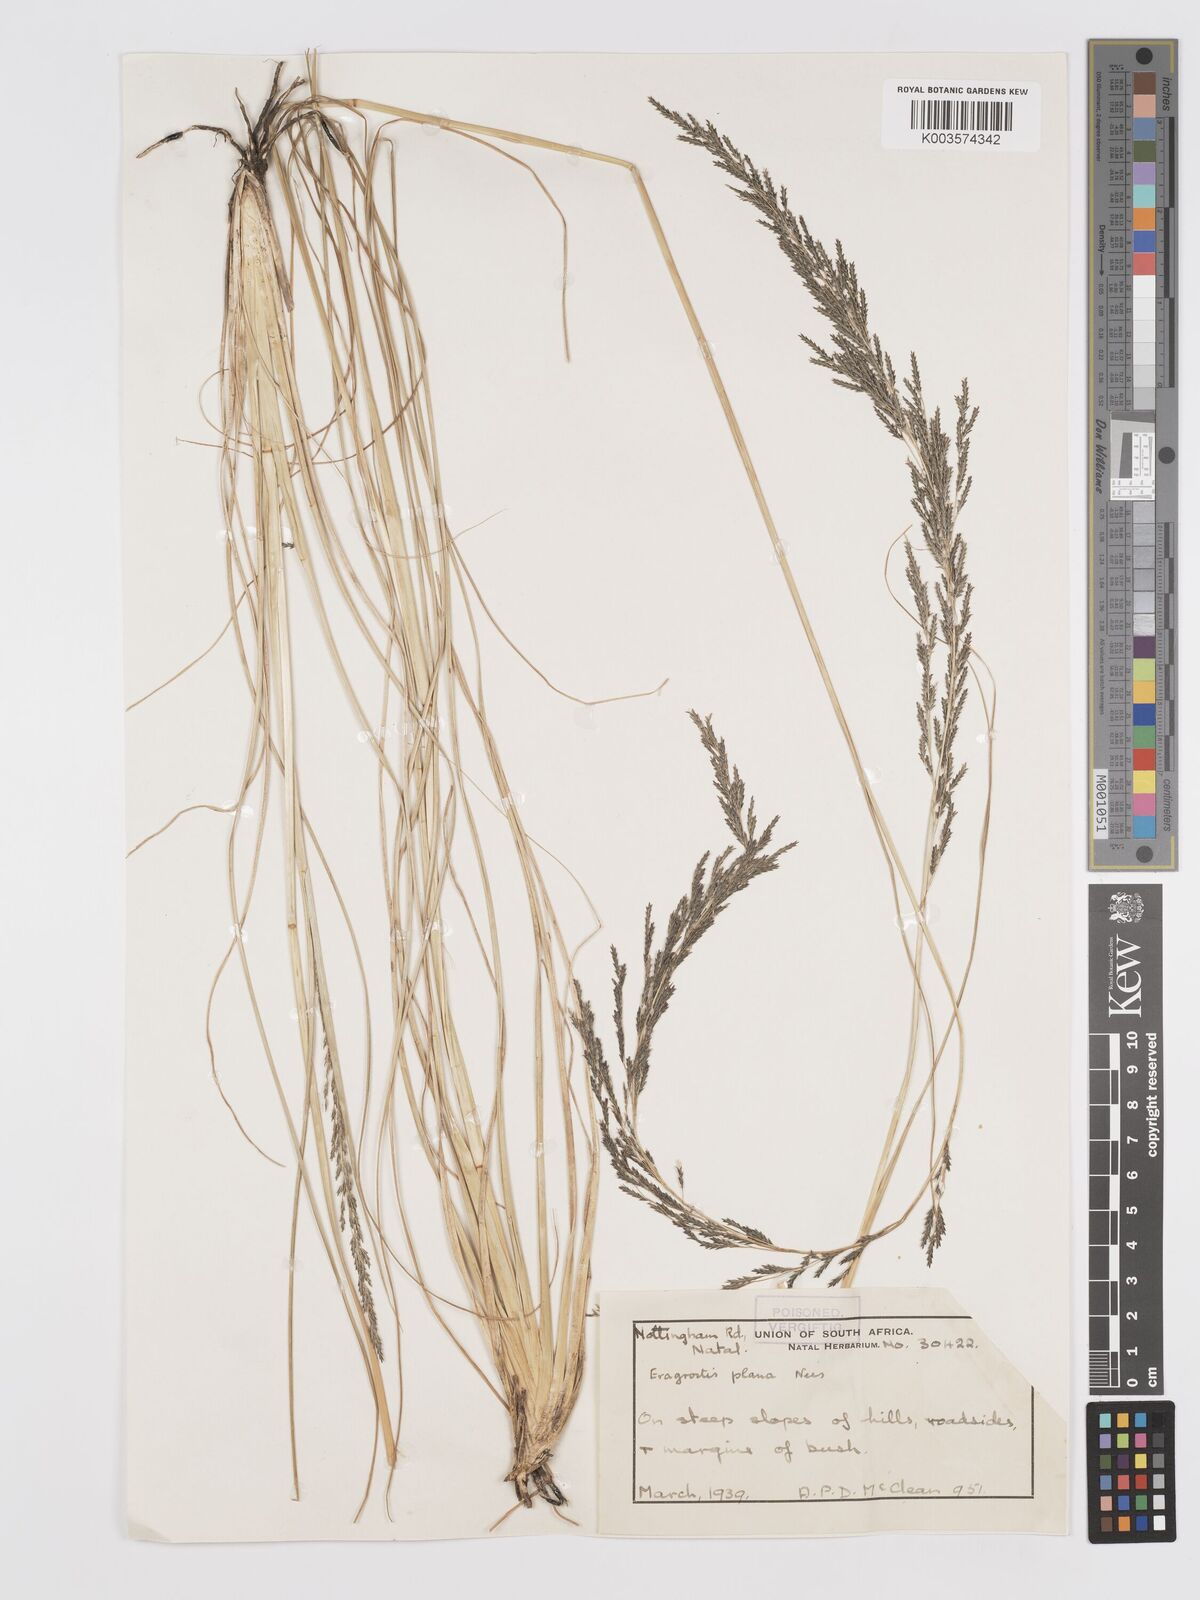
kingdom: Plantae
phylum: Tracheophyta
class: Liliopsida
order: Poales
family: Poaceae
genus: Eragrostis
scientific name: Eragrostis plana
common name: South african lovegrass
